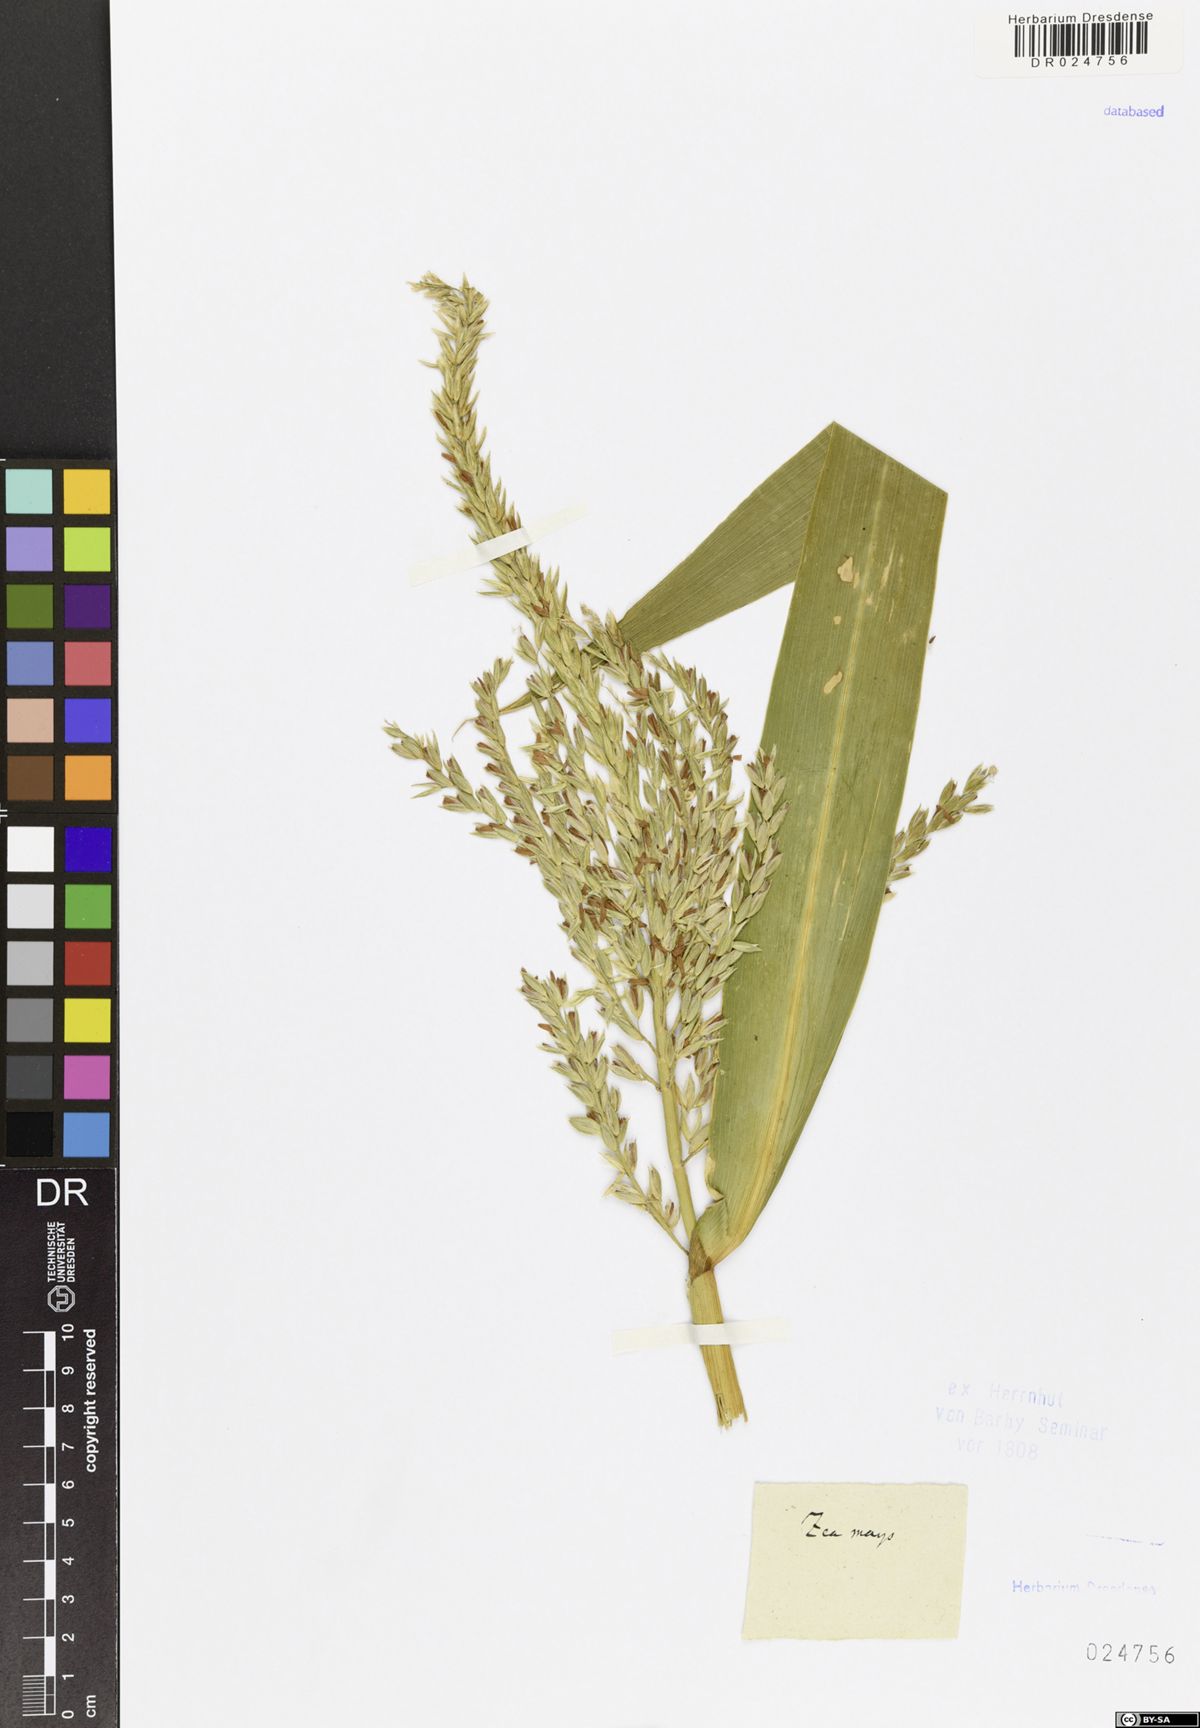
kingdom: Plantae
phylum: Tracheophyta
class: Liliopsida
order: Poales
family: Poaceae
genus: Zea
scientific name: Zea mays
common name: Maize
